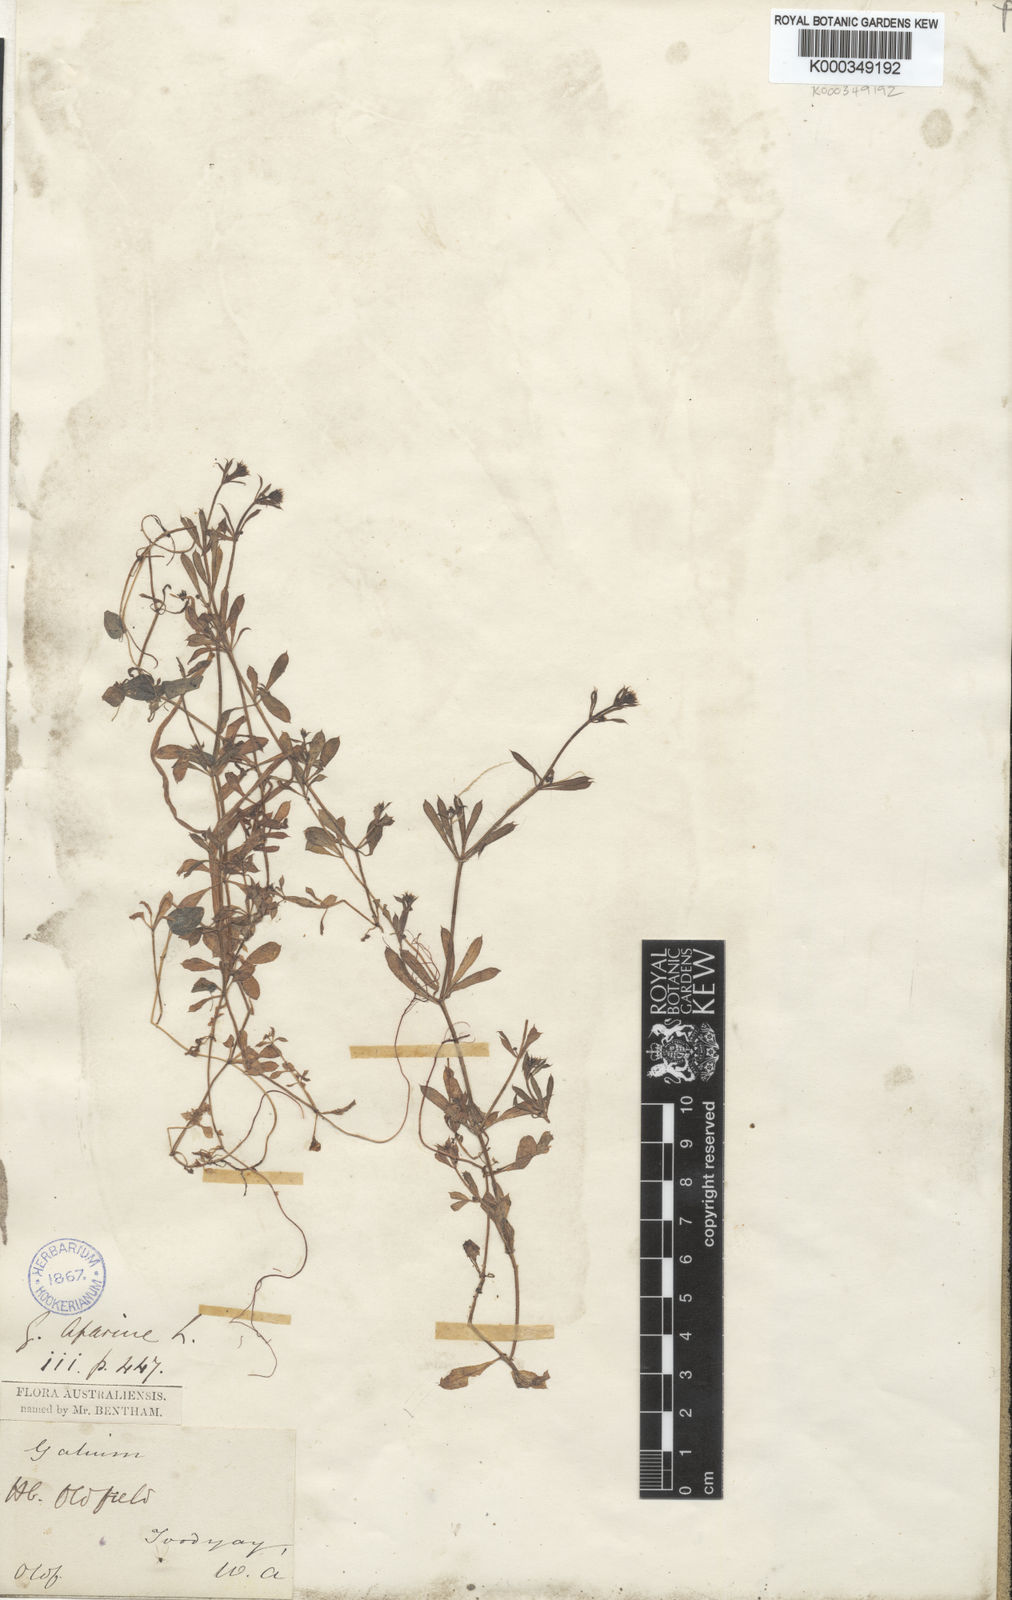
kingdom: Plantae
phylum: Tracheophyta
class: Magnoliopsida
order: Gentianales
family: Rubiaceae
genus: Galium
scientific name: Galium aparine
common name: Cleavers
